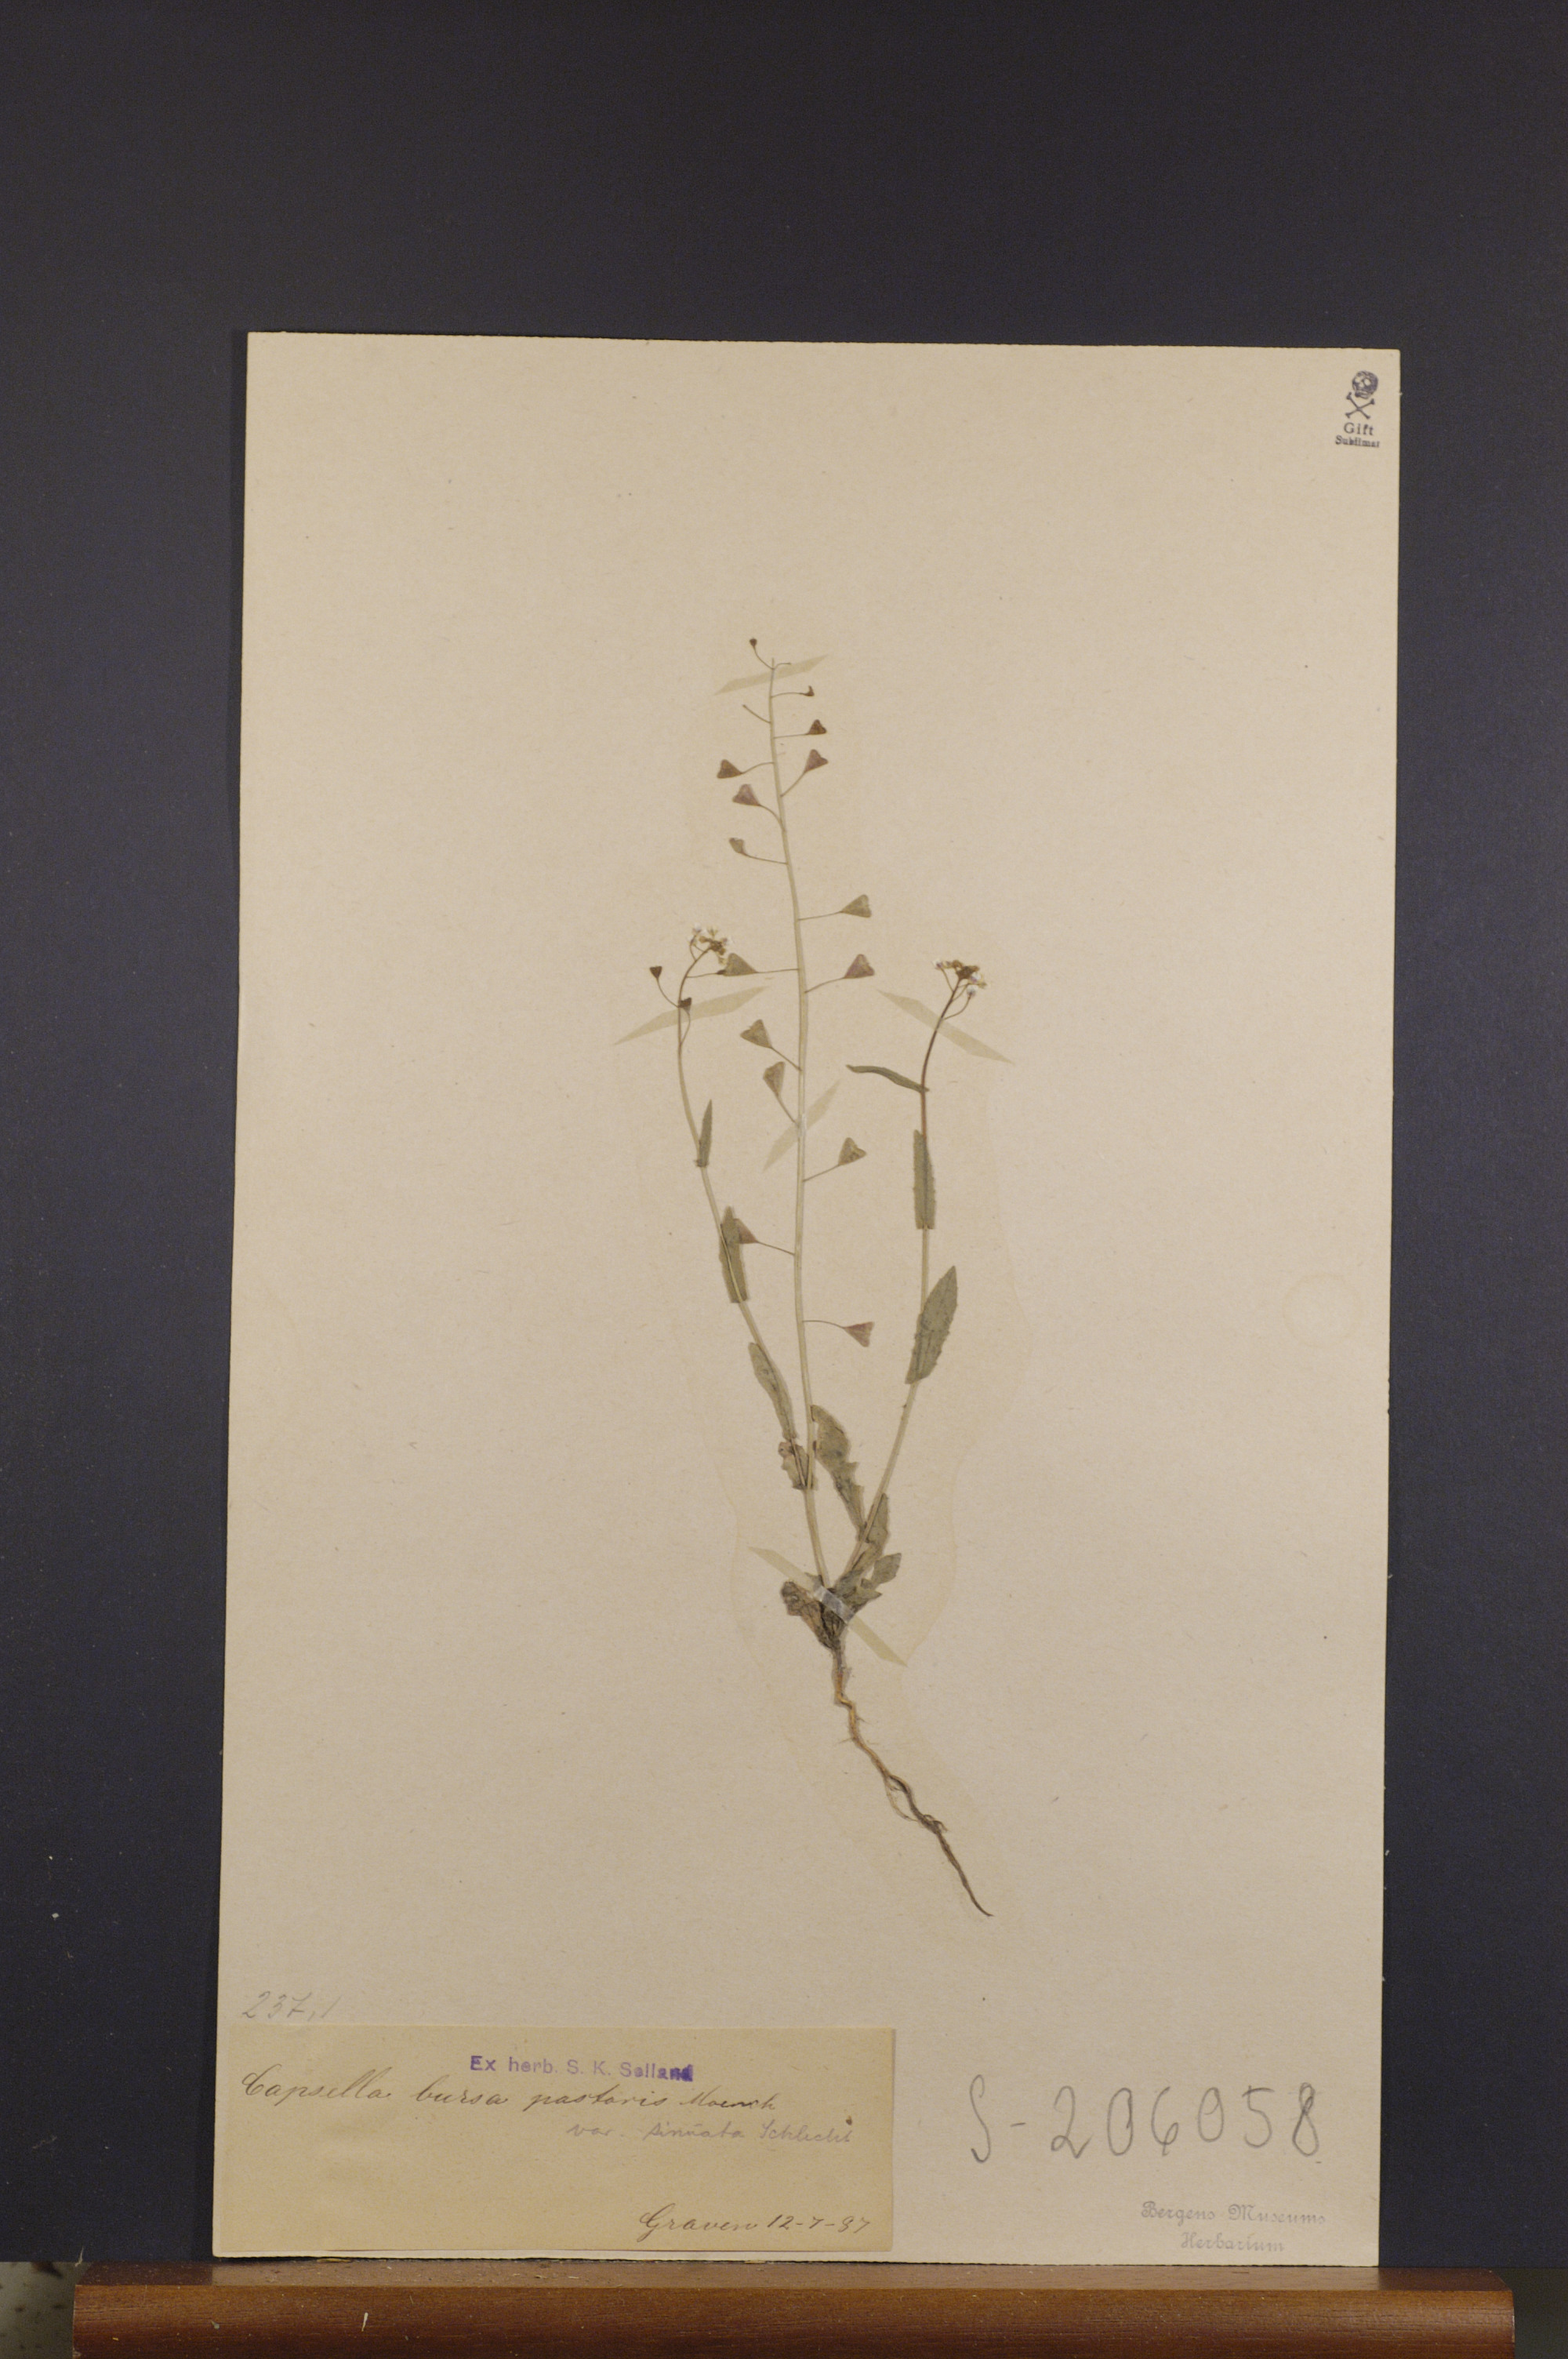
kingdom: Plantae
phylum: Tracheophyta
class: Magnoliopsida
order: Brassicales
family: Brassicaceae
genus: Capsella
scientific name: Capsella bursa-pastoris
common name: Shepherd's purse
